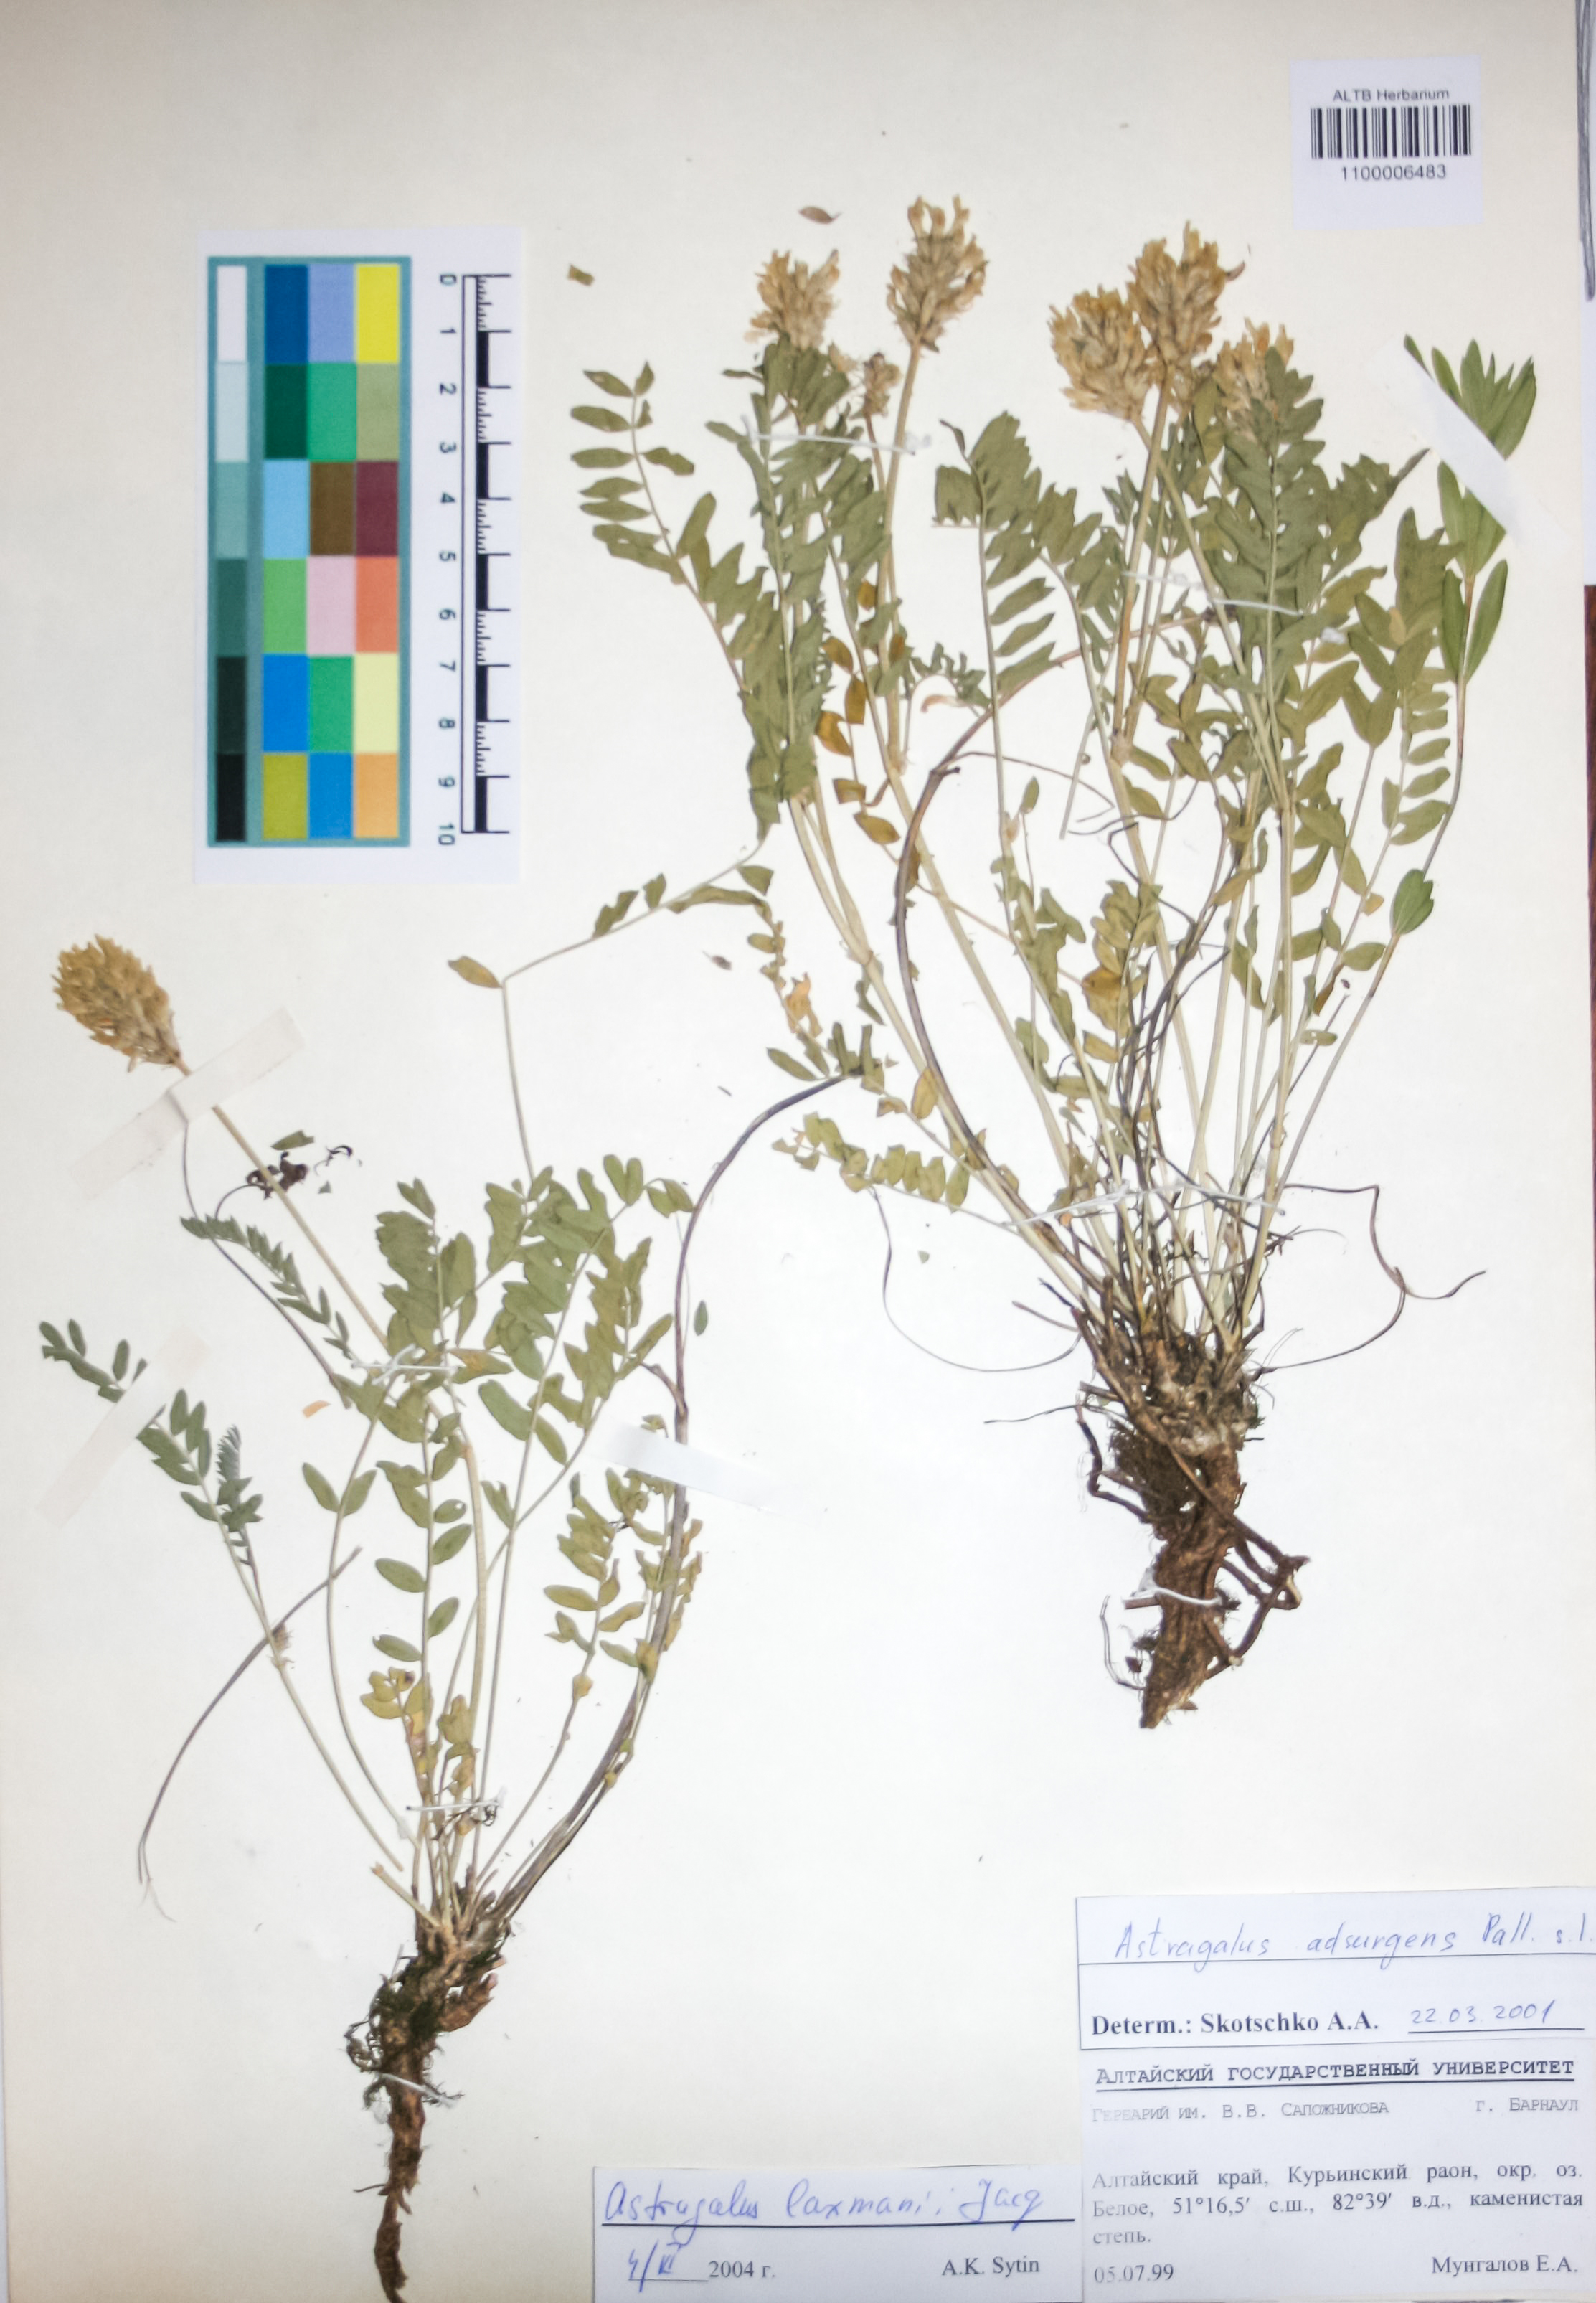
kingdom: Plantae
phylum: Tracheophyta
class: Magnoliopsida
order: Fabales
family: Fabaceae
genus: Astragalus
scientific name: Astragalus laxmannii
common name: Laxmann's milk-vetch
